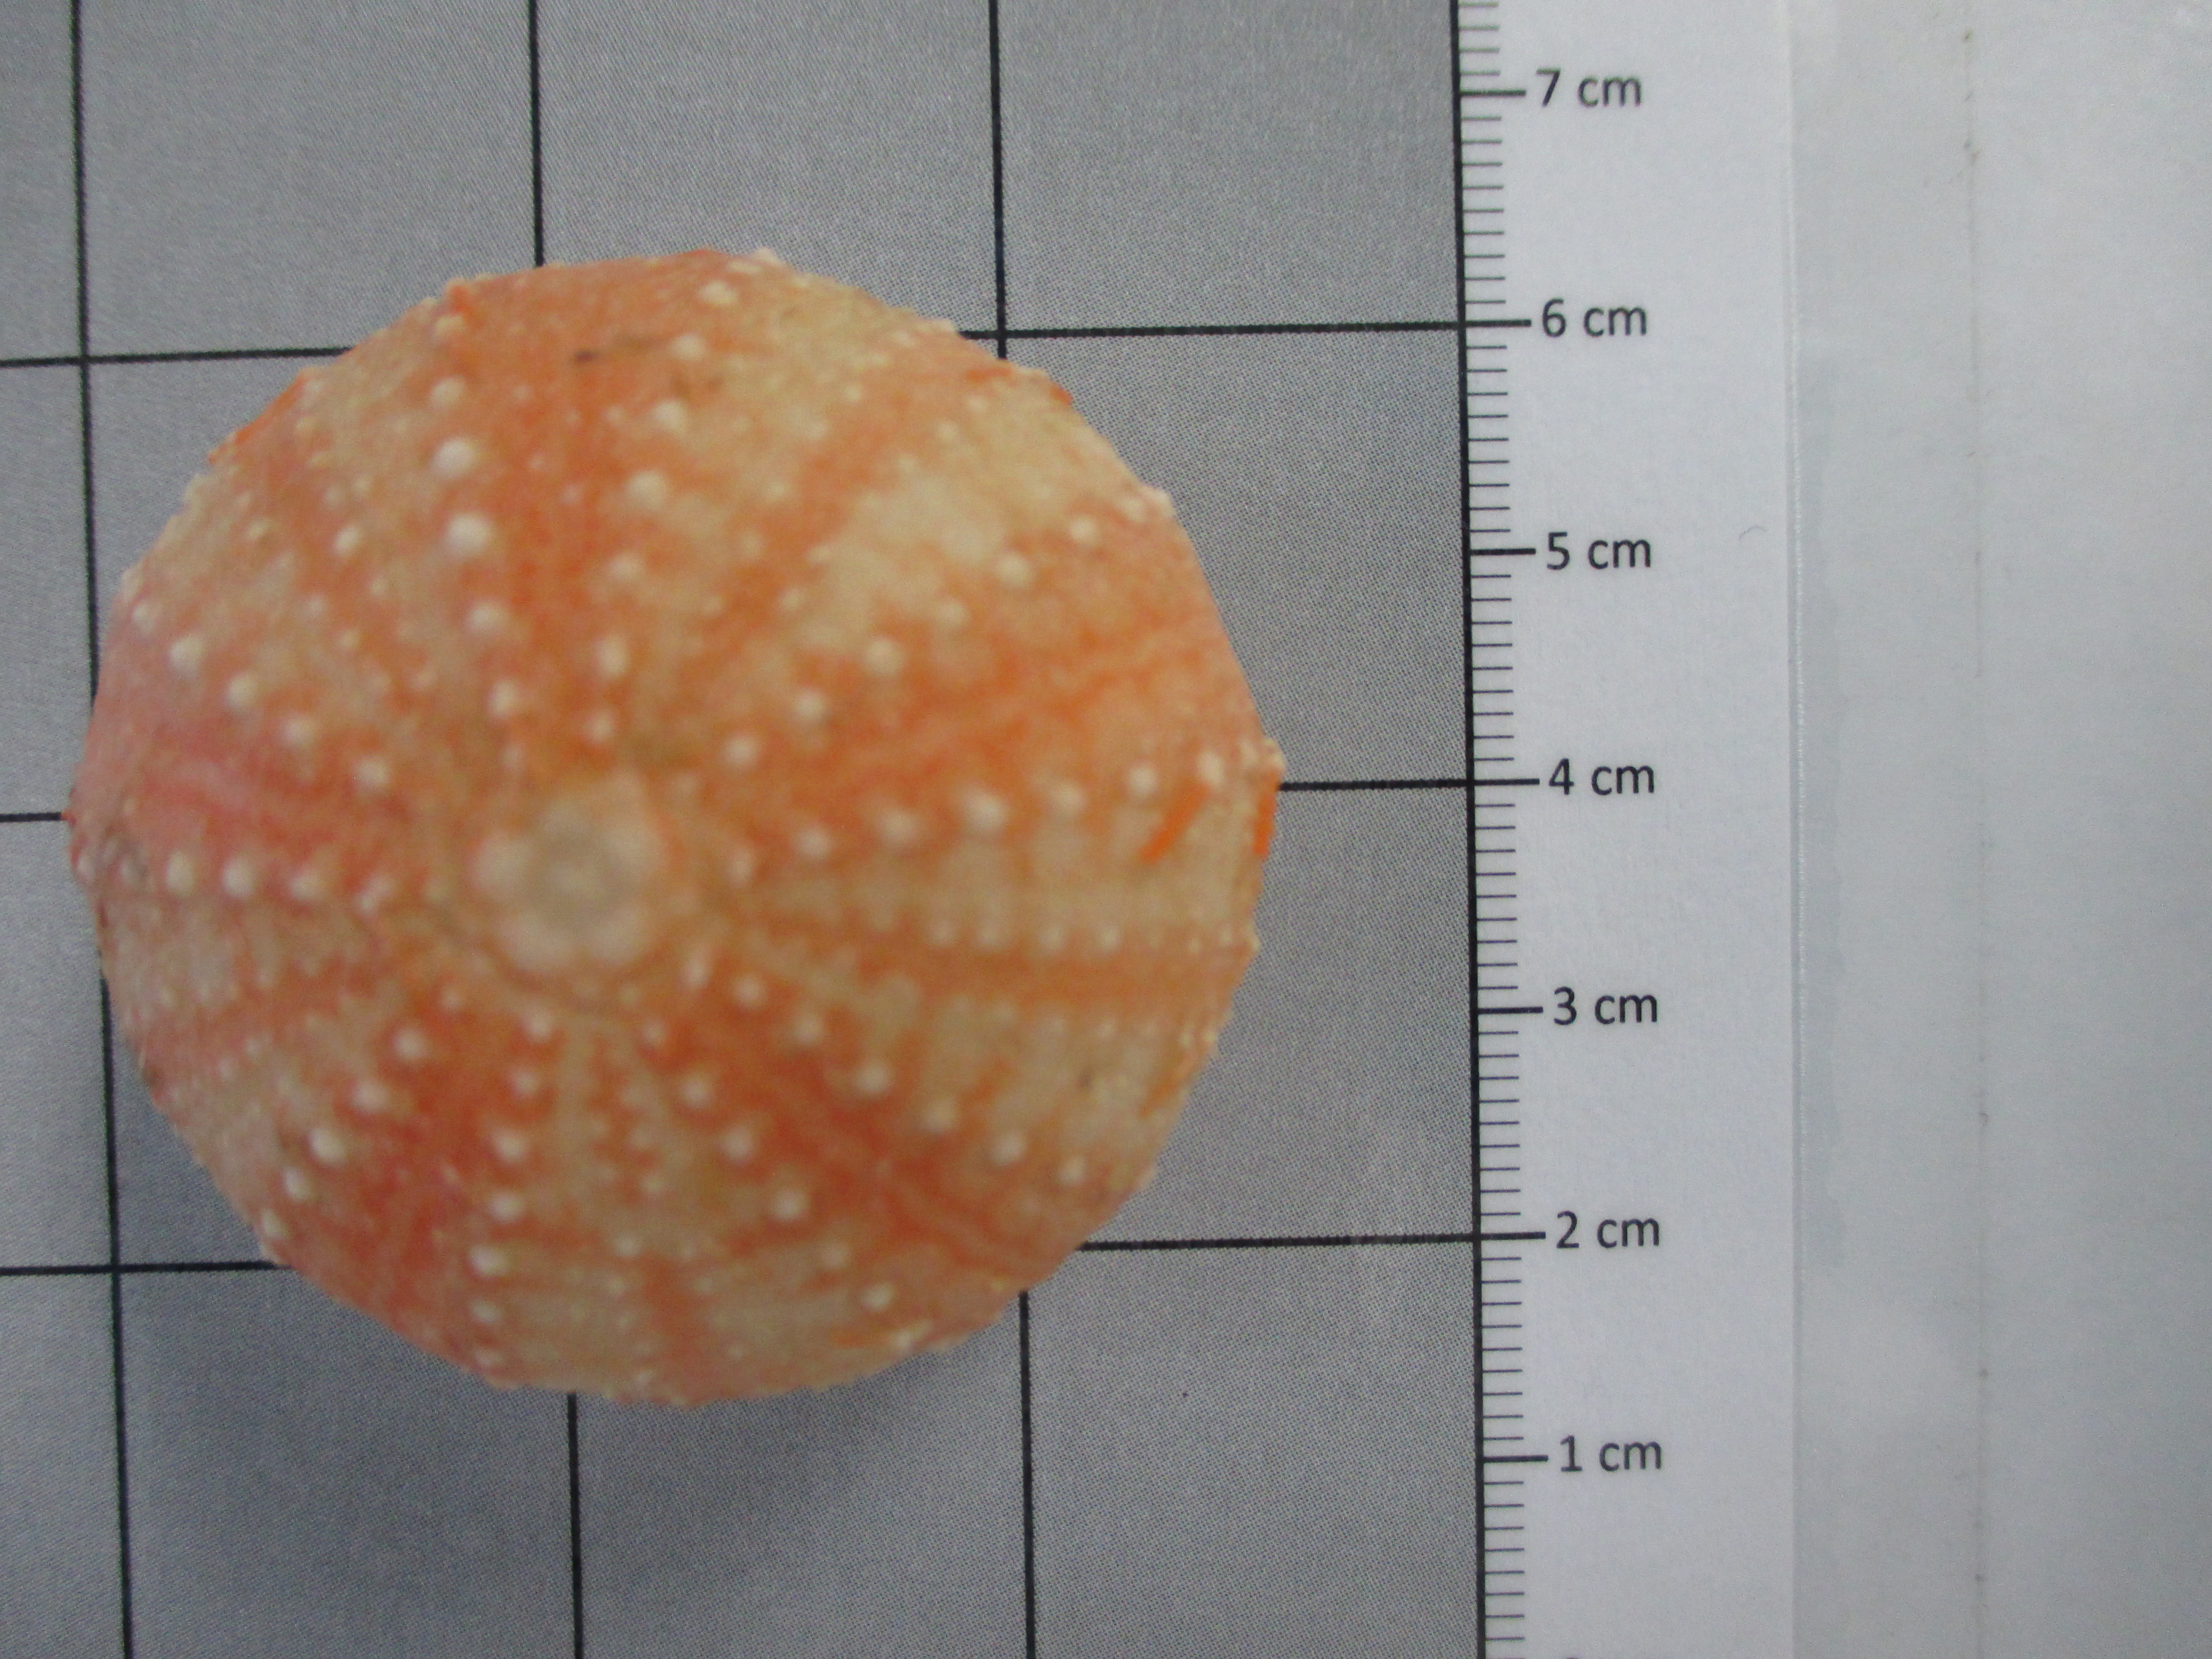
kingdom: Animalia
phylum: Echinodermata
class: Echinoidea
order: Camarodonta
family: Echinidae
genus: Dermechinus
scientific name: Dermechinus horridus
